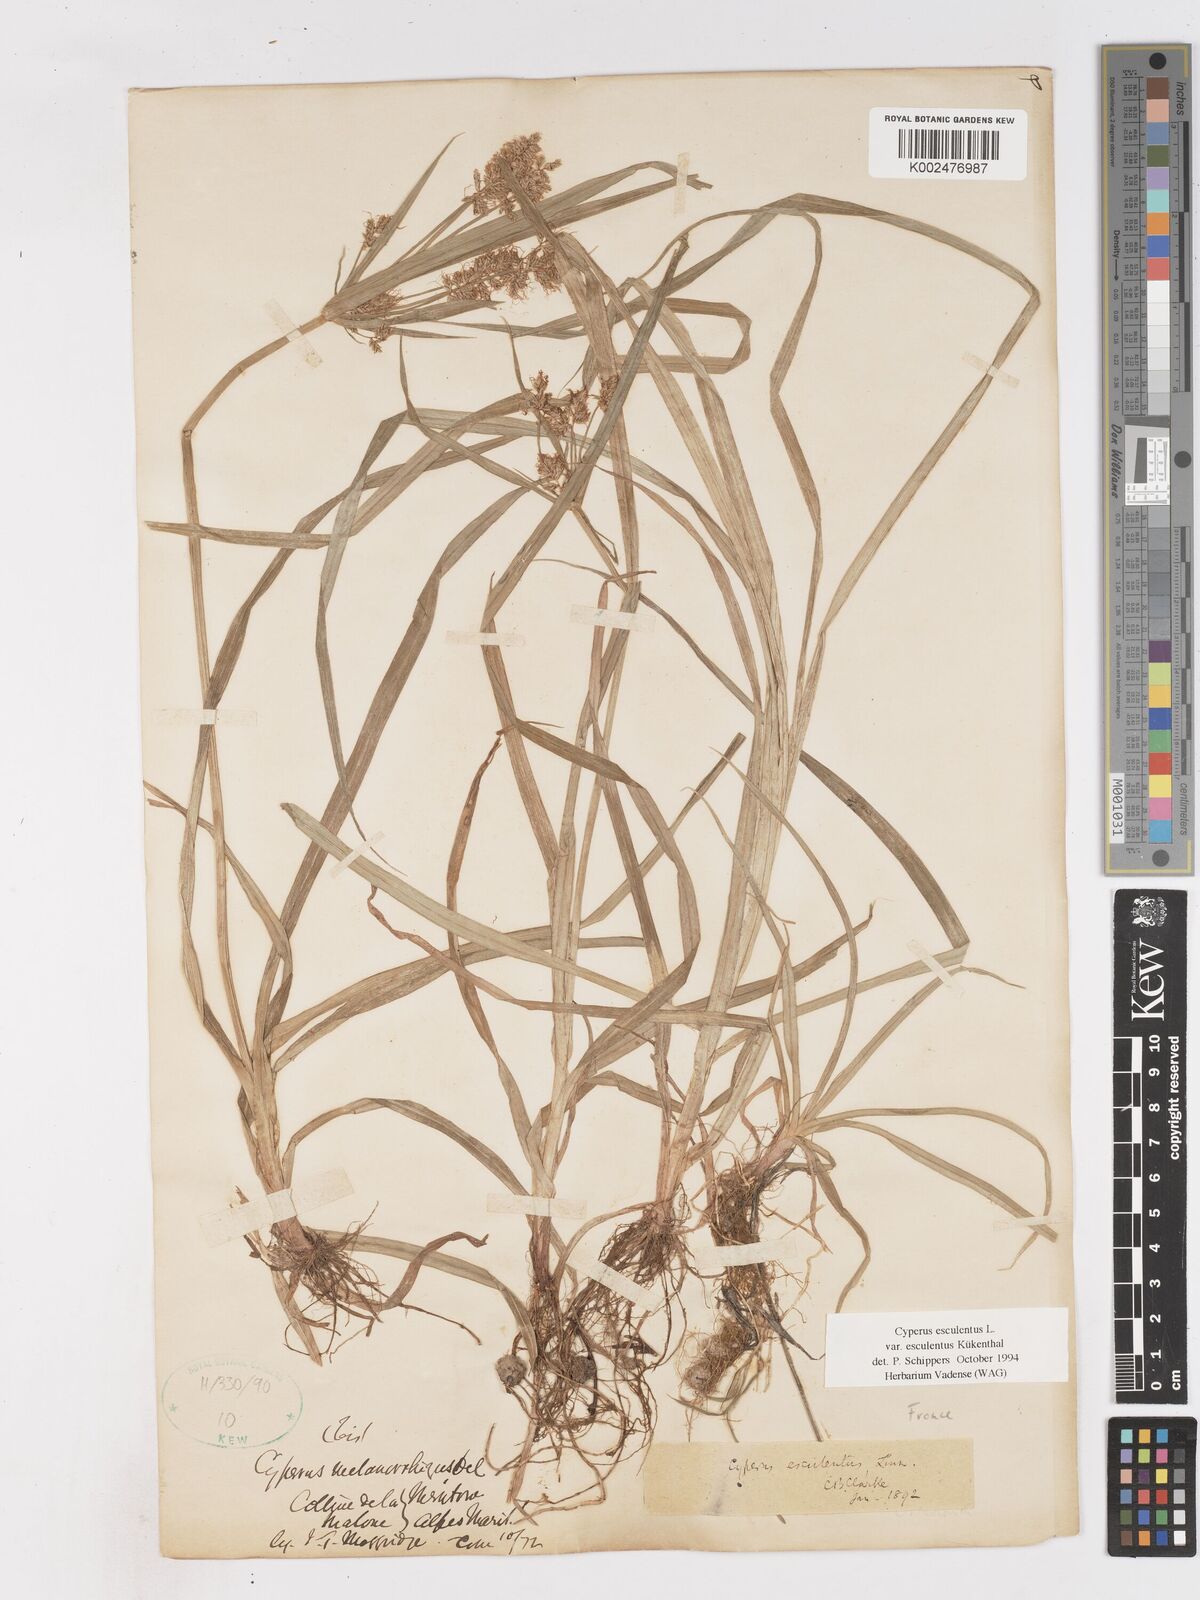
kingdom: Plantae
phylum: Tracheophyta
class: Liliopsida
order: Poales
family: Cyperaceae
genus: Cyperus
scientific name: Cyperus esculentus
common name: Yellow nutsedge
